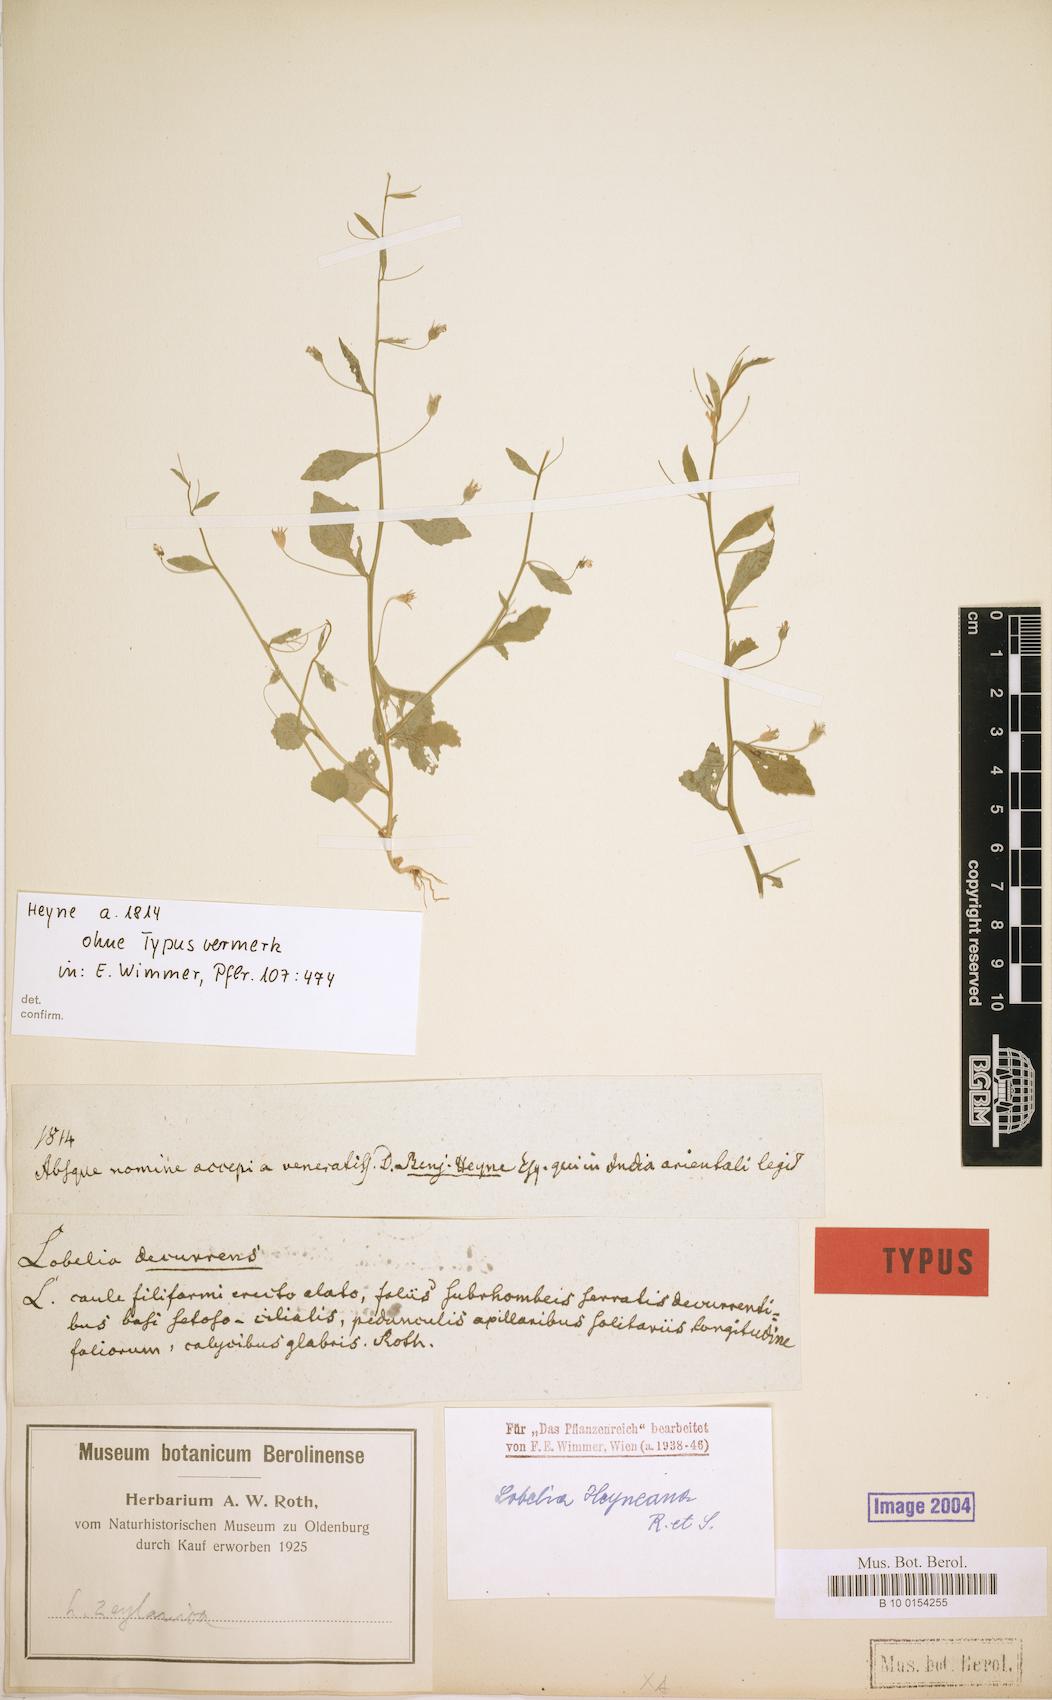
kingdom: Plantae
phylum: Tracheophyta
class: Magnoliopsida
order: Asterales
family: Campanulaceae
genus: Lobelia
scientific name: Lobelia heyneana
